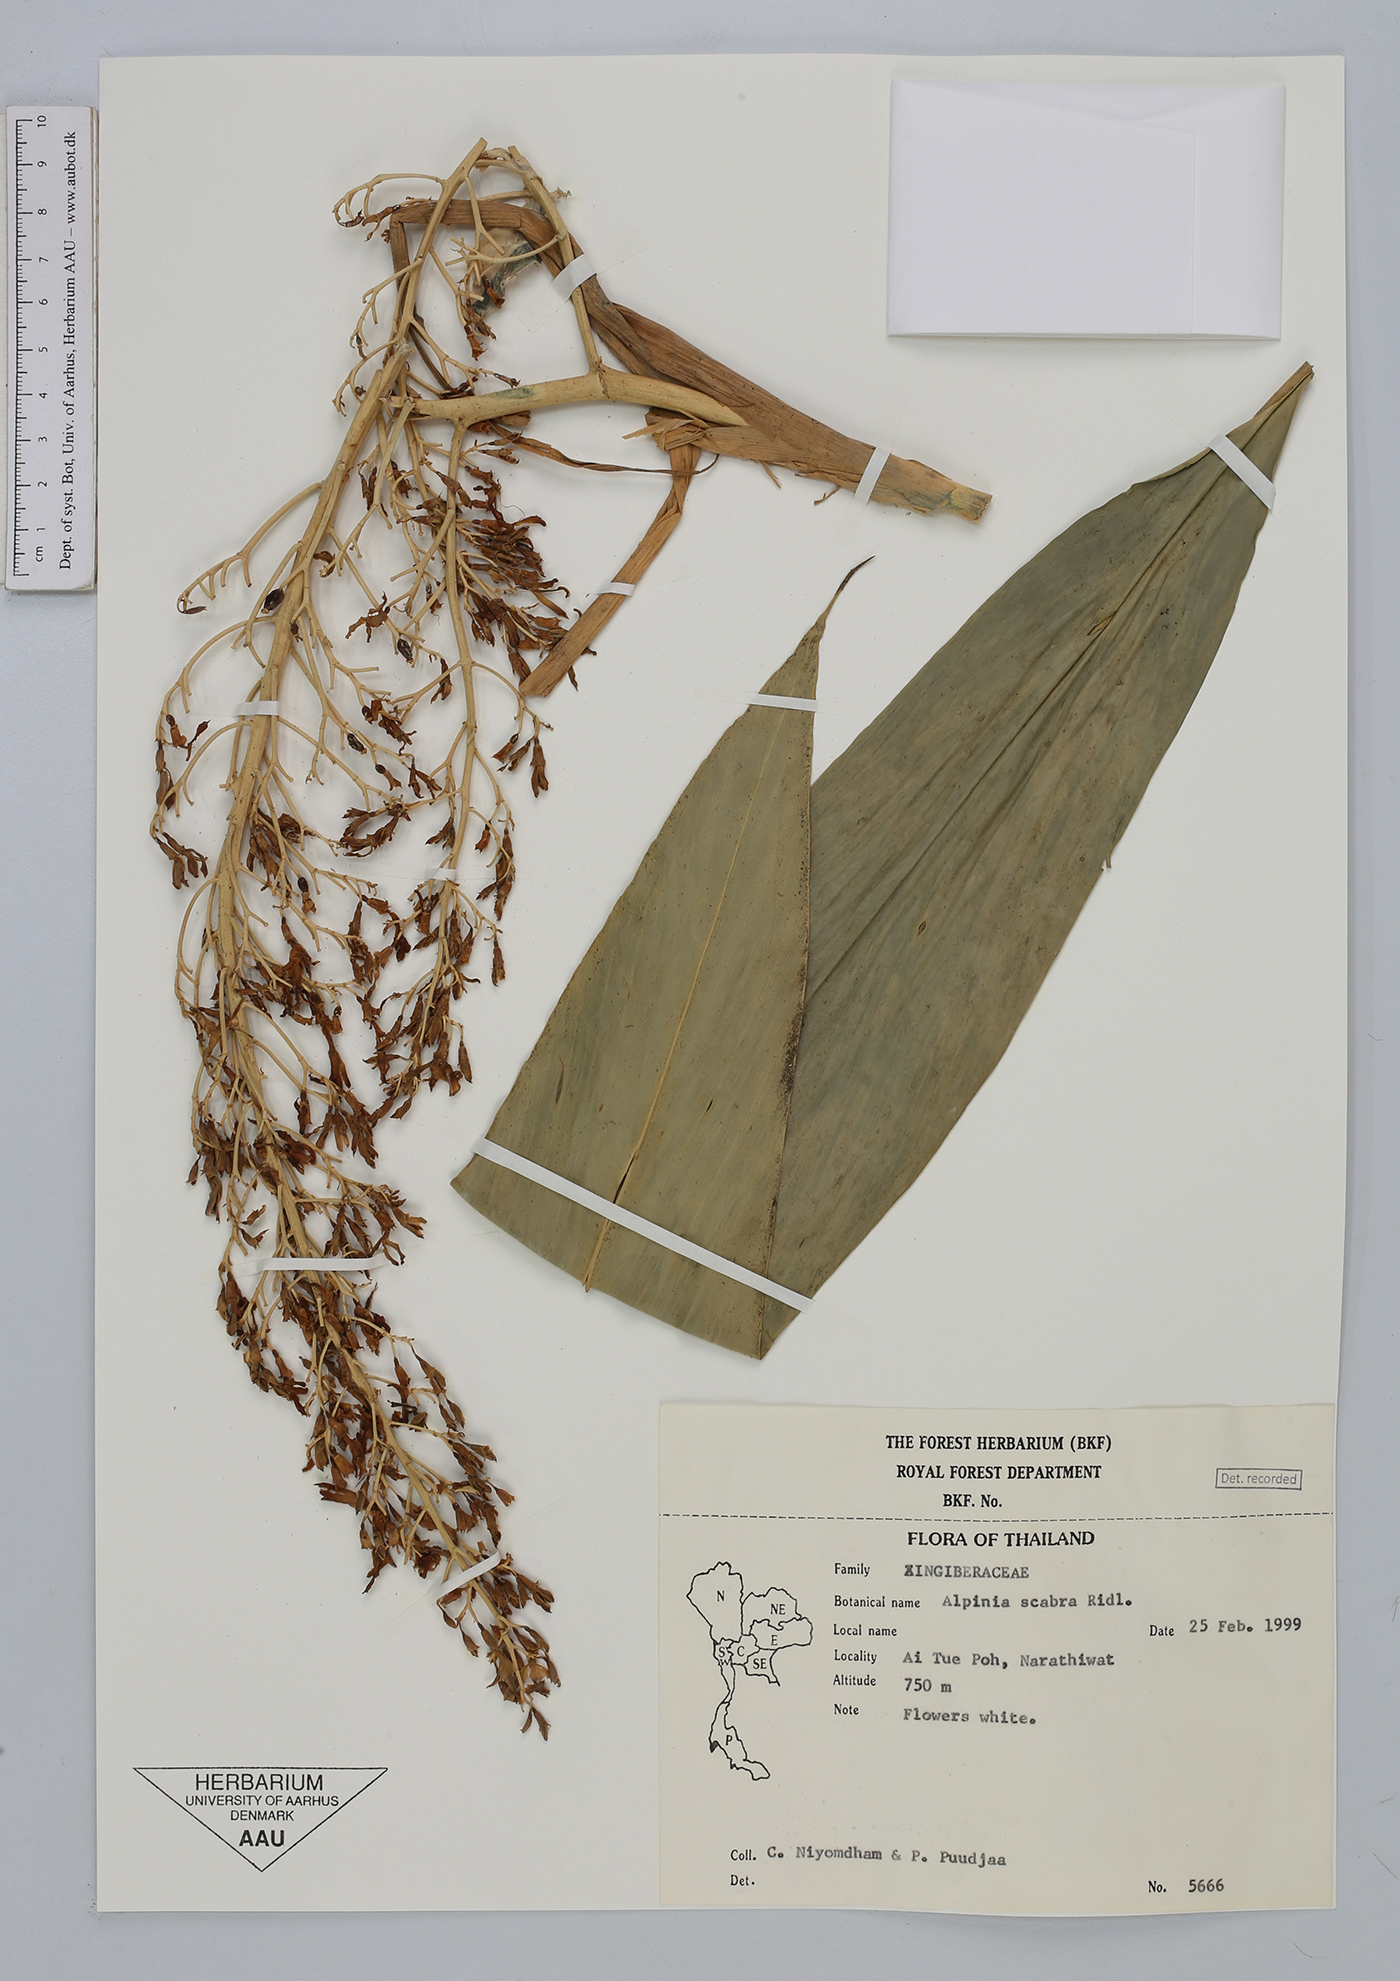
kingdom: Plantae
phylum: Tracheophyta
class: Liliopsida
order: Zingiberales
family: Zingiberaceae
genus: Alpinia
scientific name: Alpinia scabra
